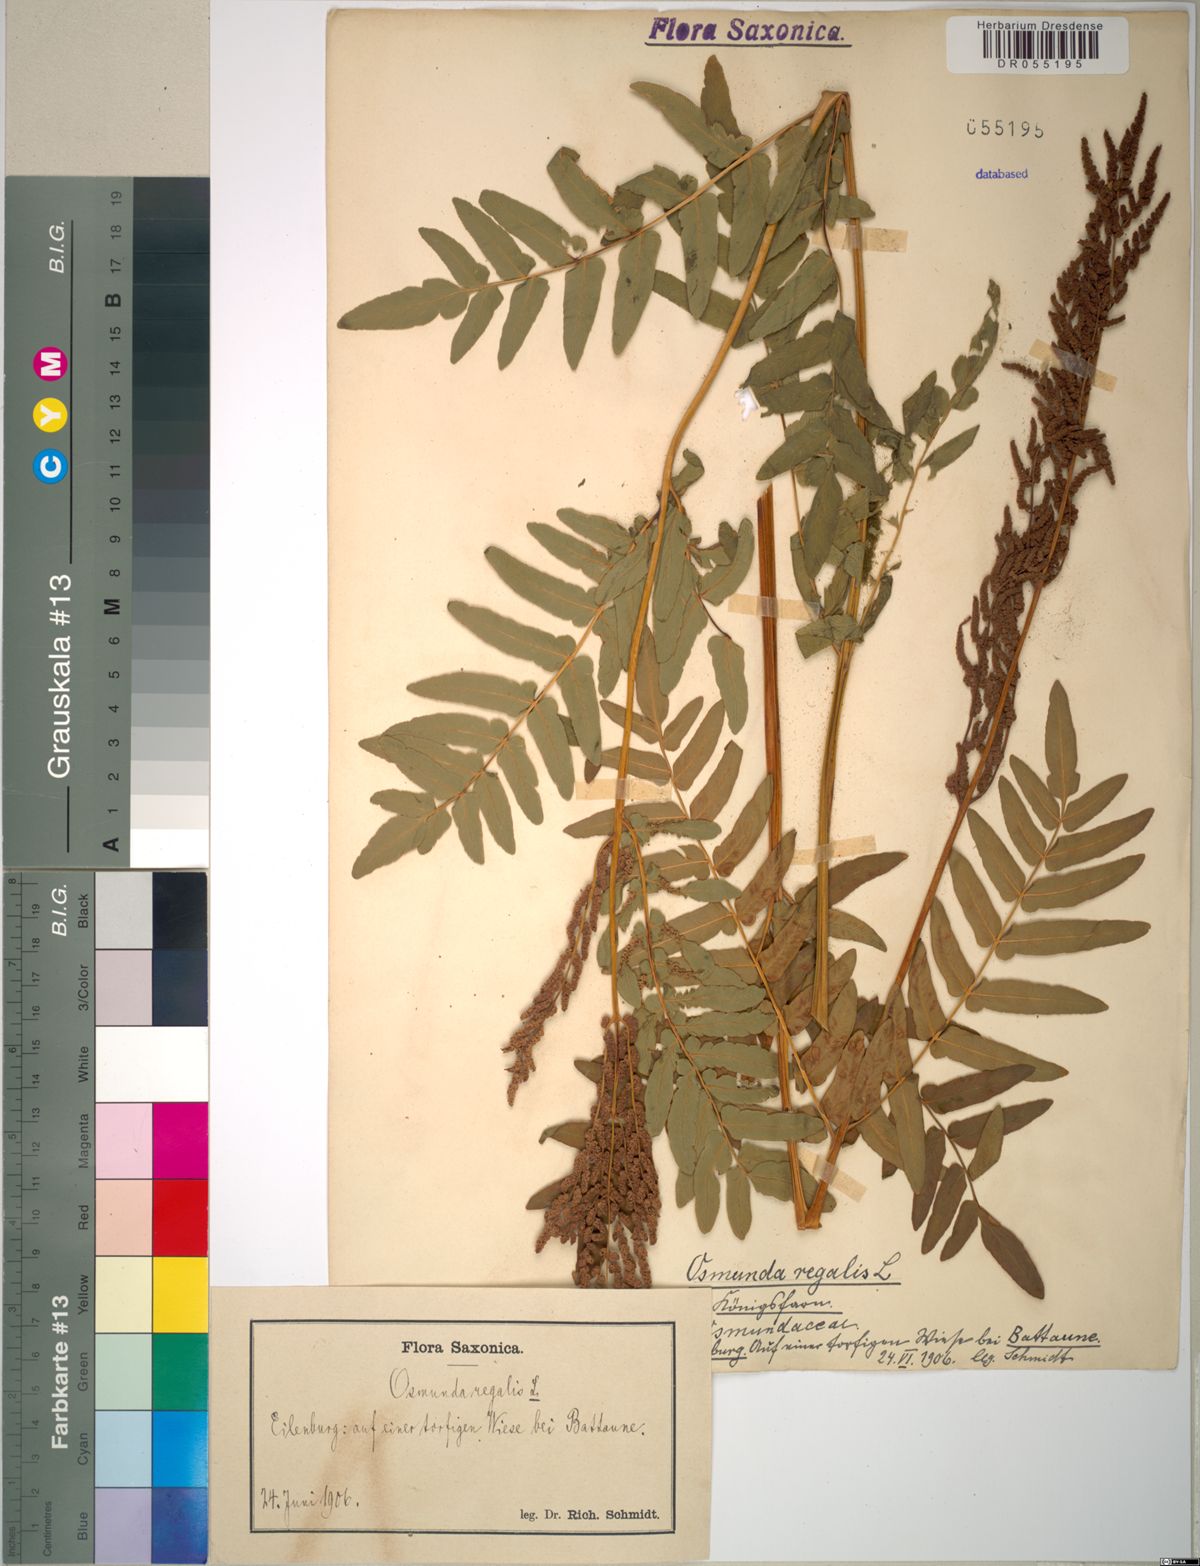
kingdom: Plantae
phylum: Tracheophyta
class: Polypodiopsida
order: Osmundales
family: Osmundaceae
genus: Osmunda
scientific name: Osmunda regalis
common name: Royal fern
